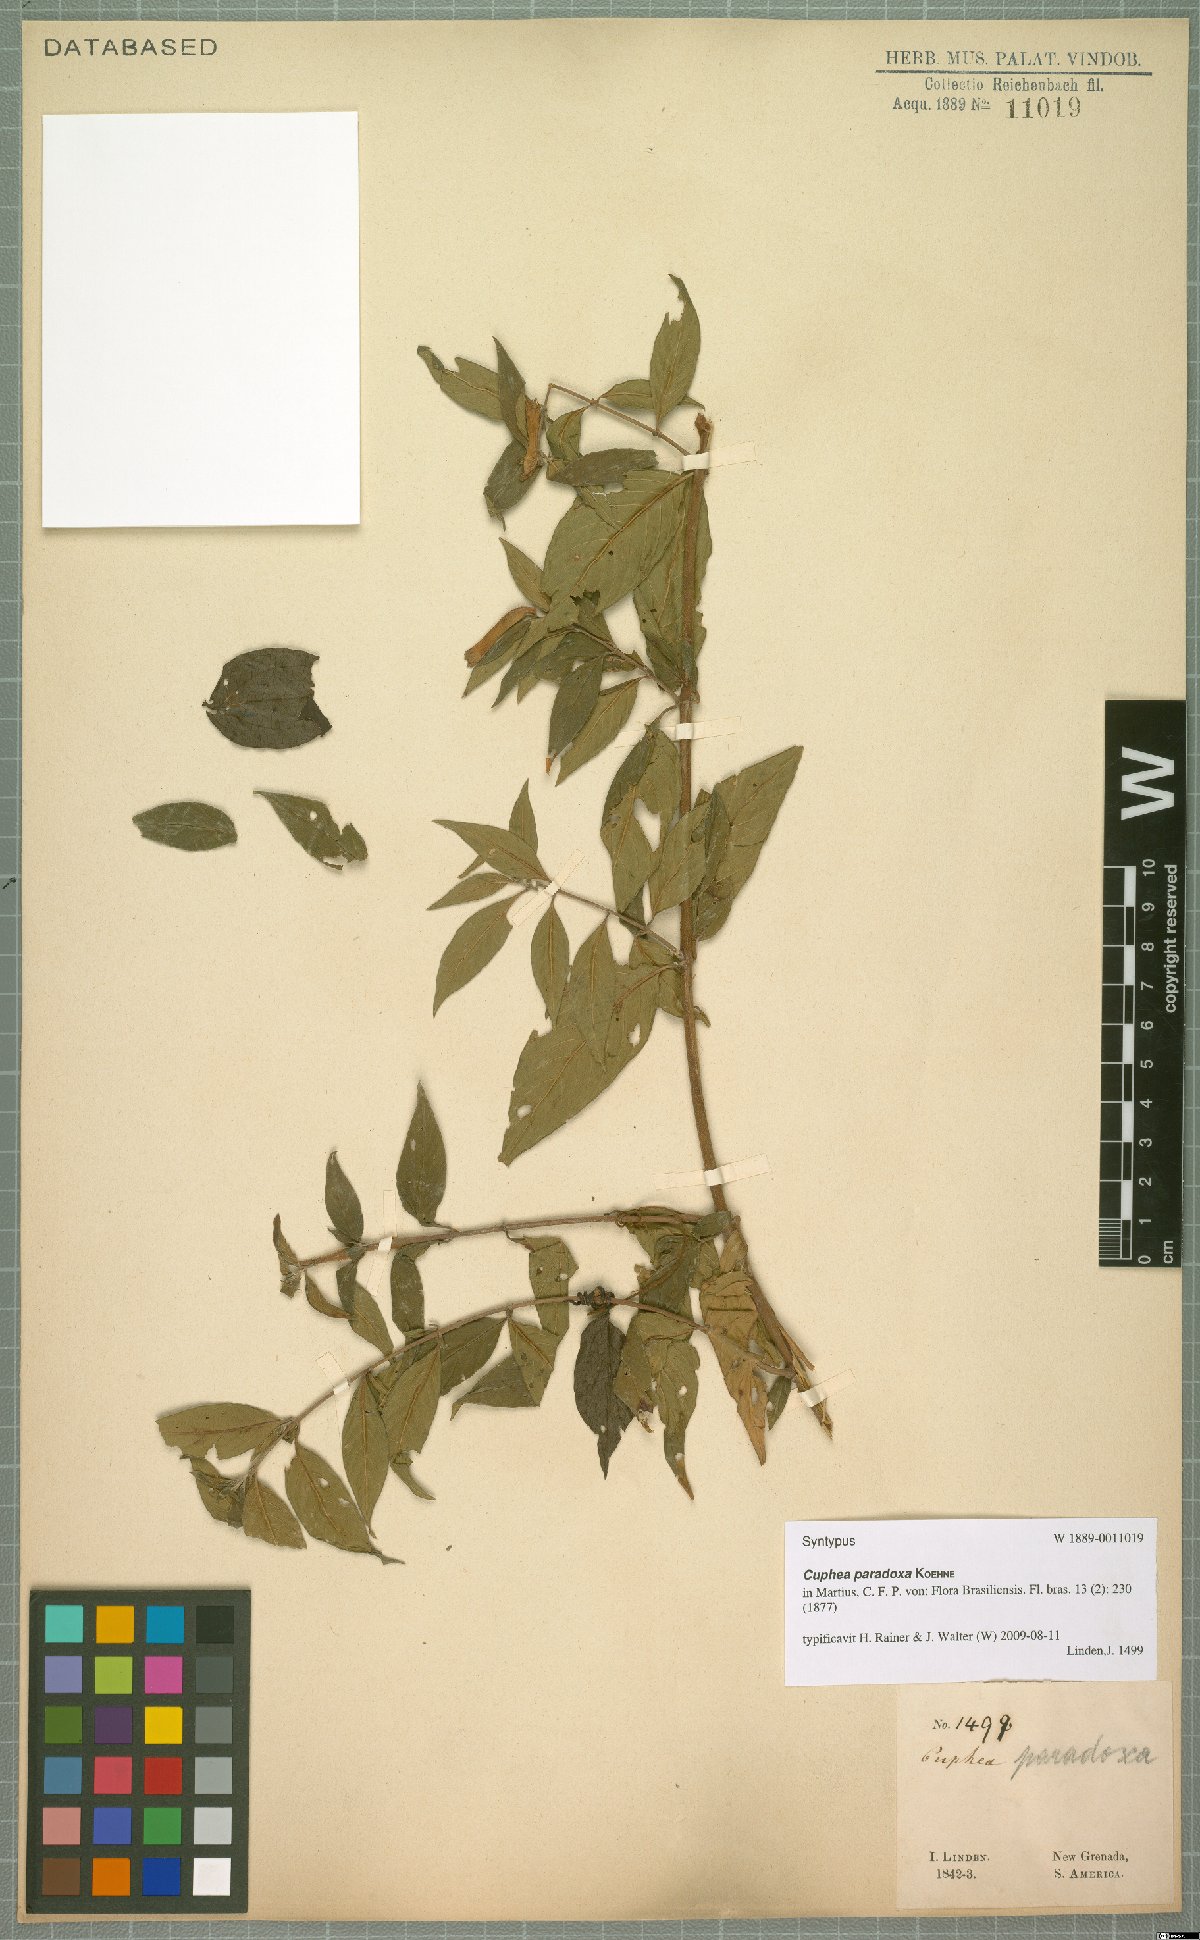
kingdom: Plantae
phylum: Tracheophyta
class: Magnoliopsida
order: Myrtales
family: Lythraceae
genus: Cuphea
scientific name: Cuphea paradoxa
